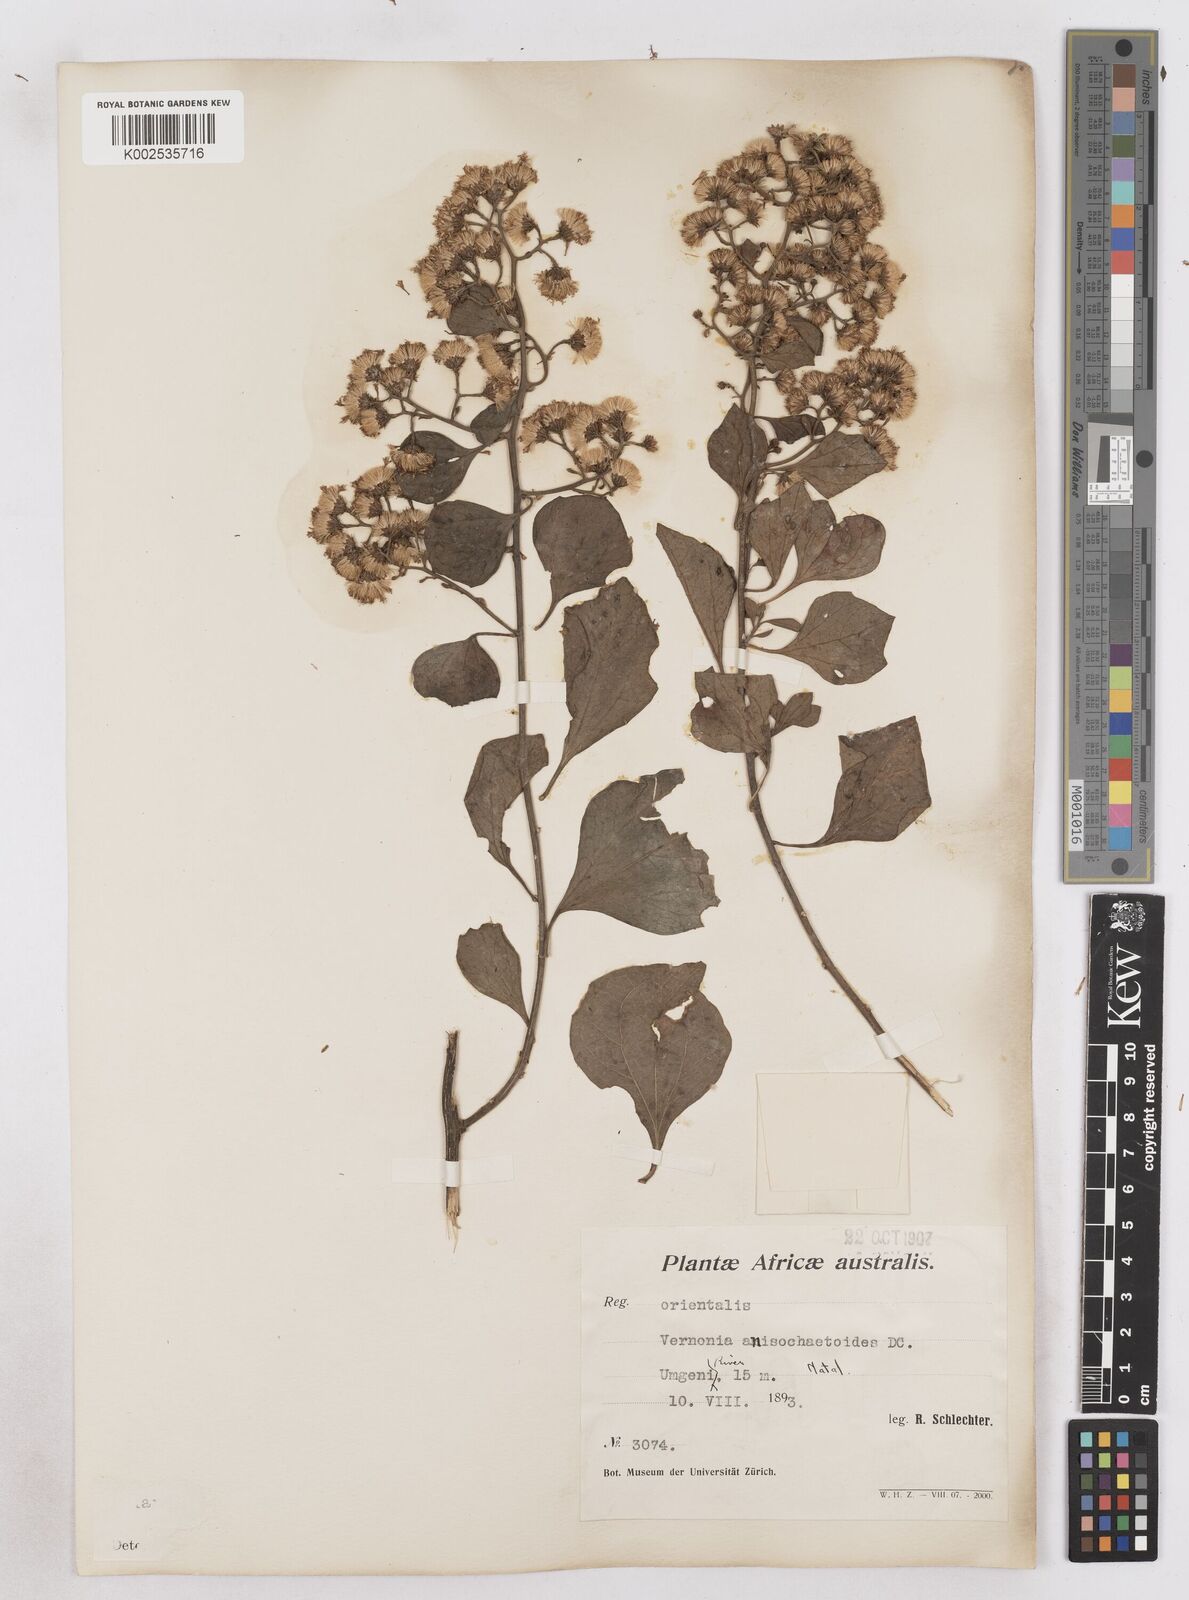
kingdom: Plantae
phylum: Tracheophyta
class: Magnoliopsida
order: Asterales
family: Asteraceae
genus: Distephanus
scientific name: Distephanus anisochaetoides
